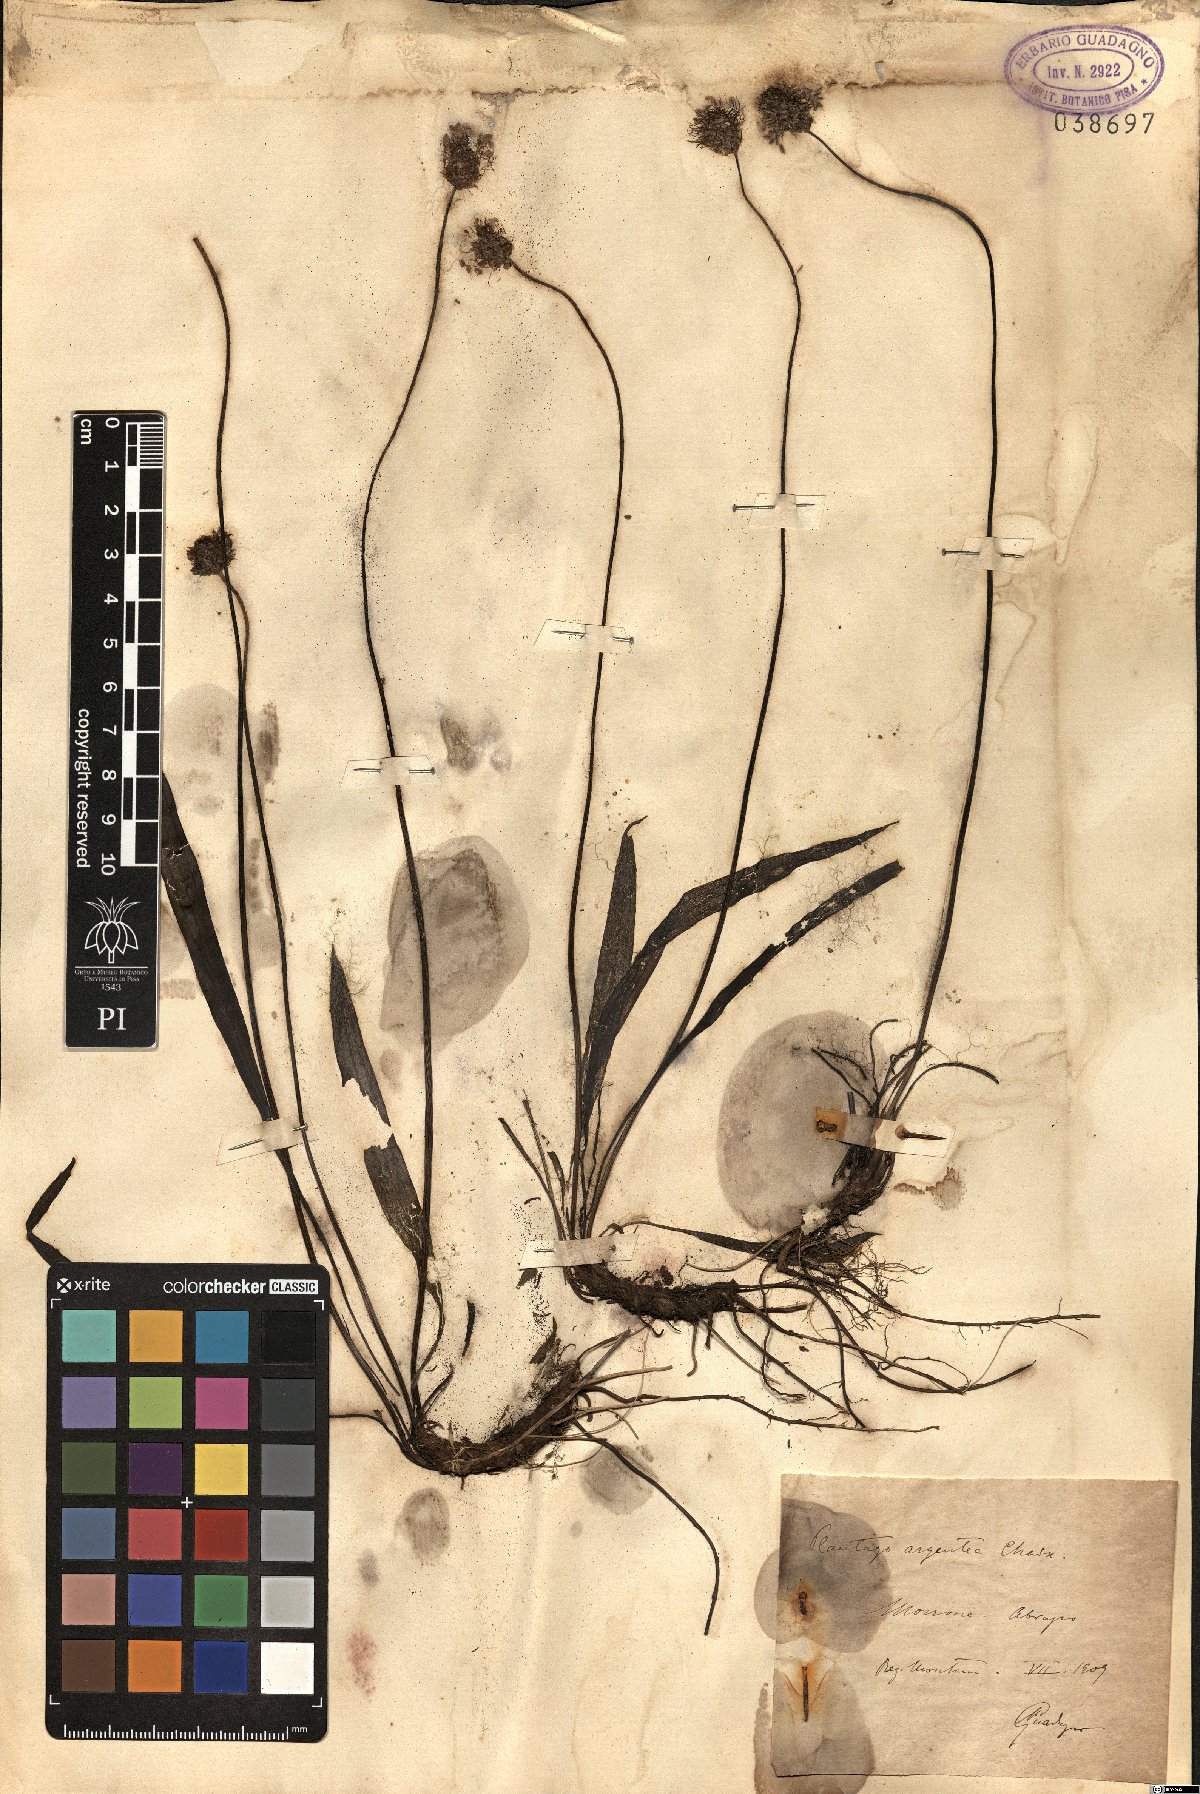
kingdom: Plantae
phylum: Tracheophyta
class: Magnoliopsida
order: Lamiales
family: Plantaginaceae
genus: Plantago
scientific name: Plantago argentea
